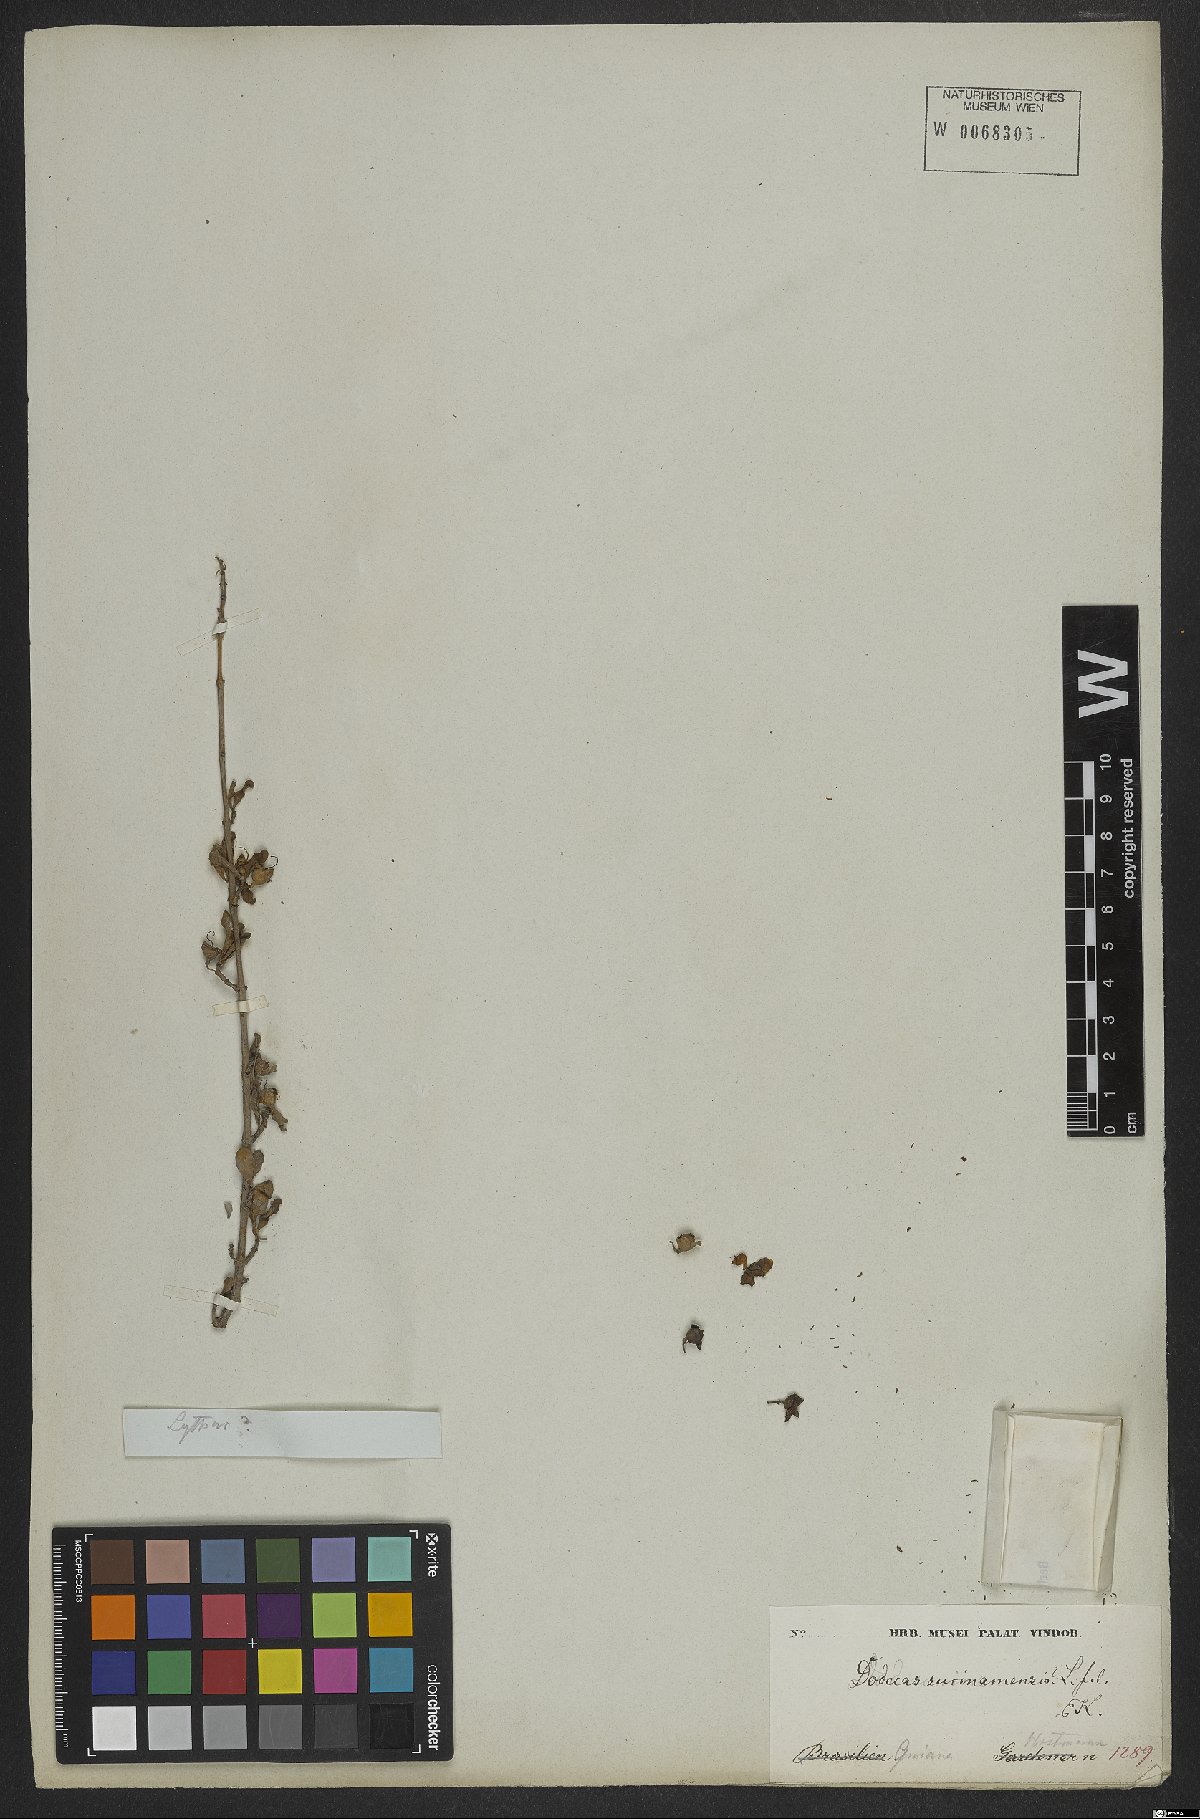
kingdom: Plantae
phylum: Tracheophyta
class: Magnoliopsida
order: Myrtales
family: Lythraceae
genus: Ammannia
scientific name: Ammannia maritima
